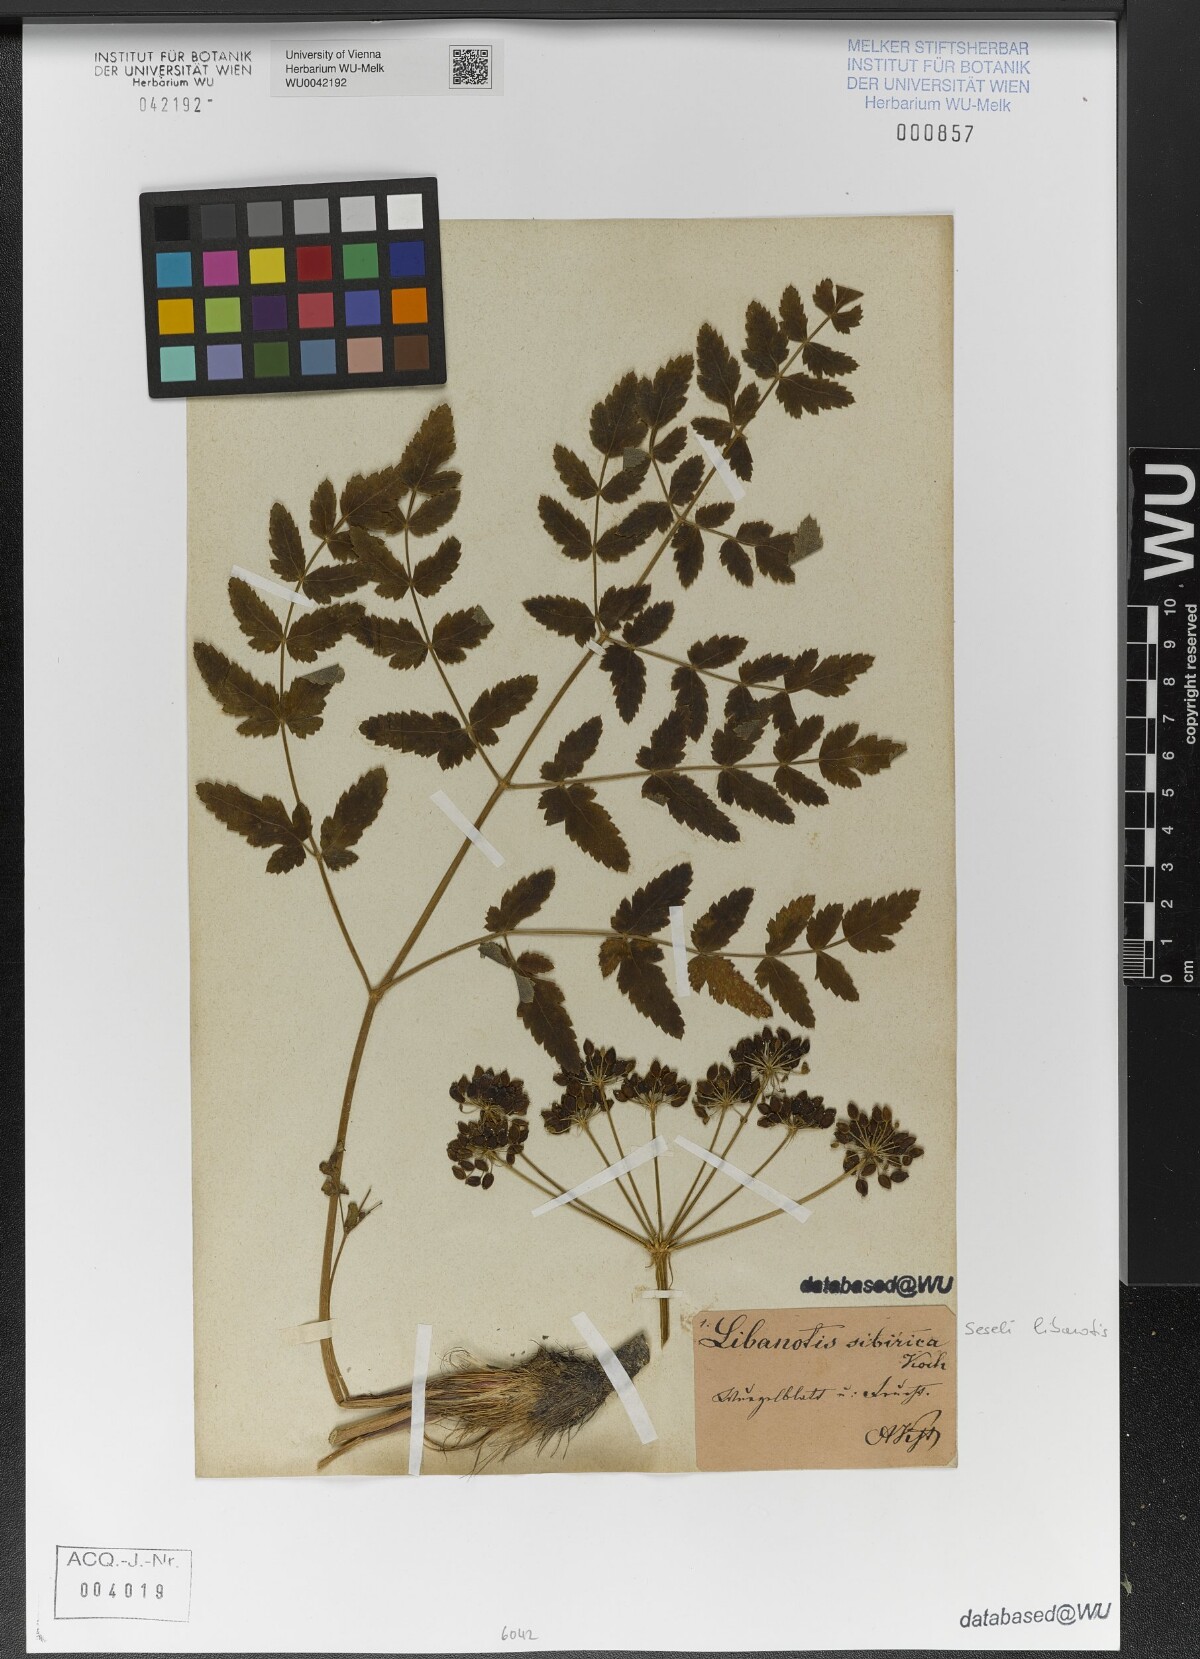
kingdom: Plantae
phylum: Tracheophyta
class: Magnoliopsida
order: Apiales
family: Apiaceae
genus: Seseli
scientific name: Seseli libanotis
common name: Mooncarrot
